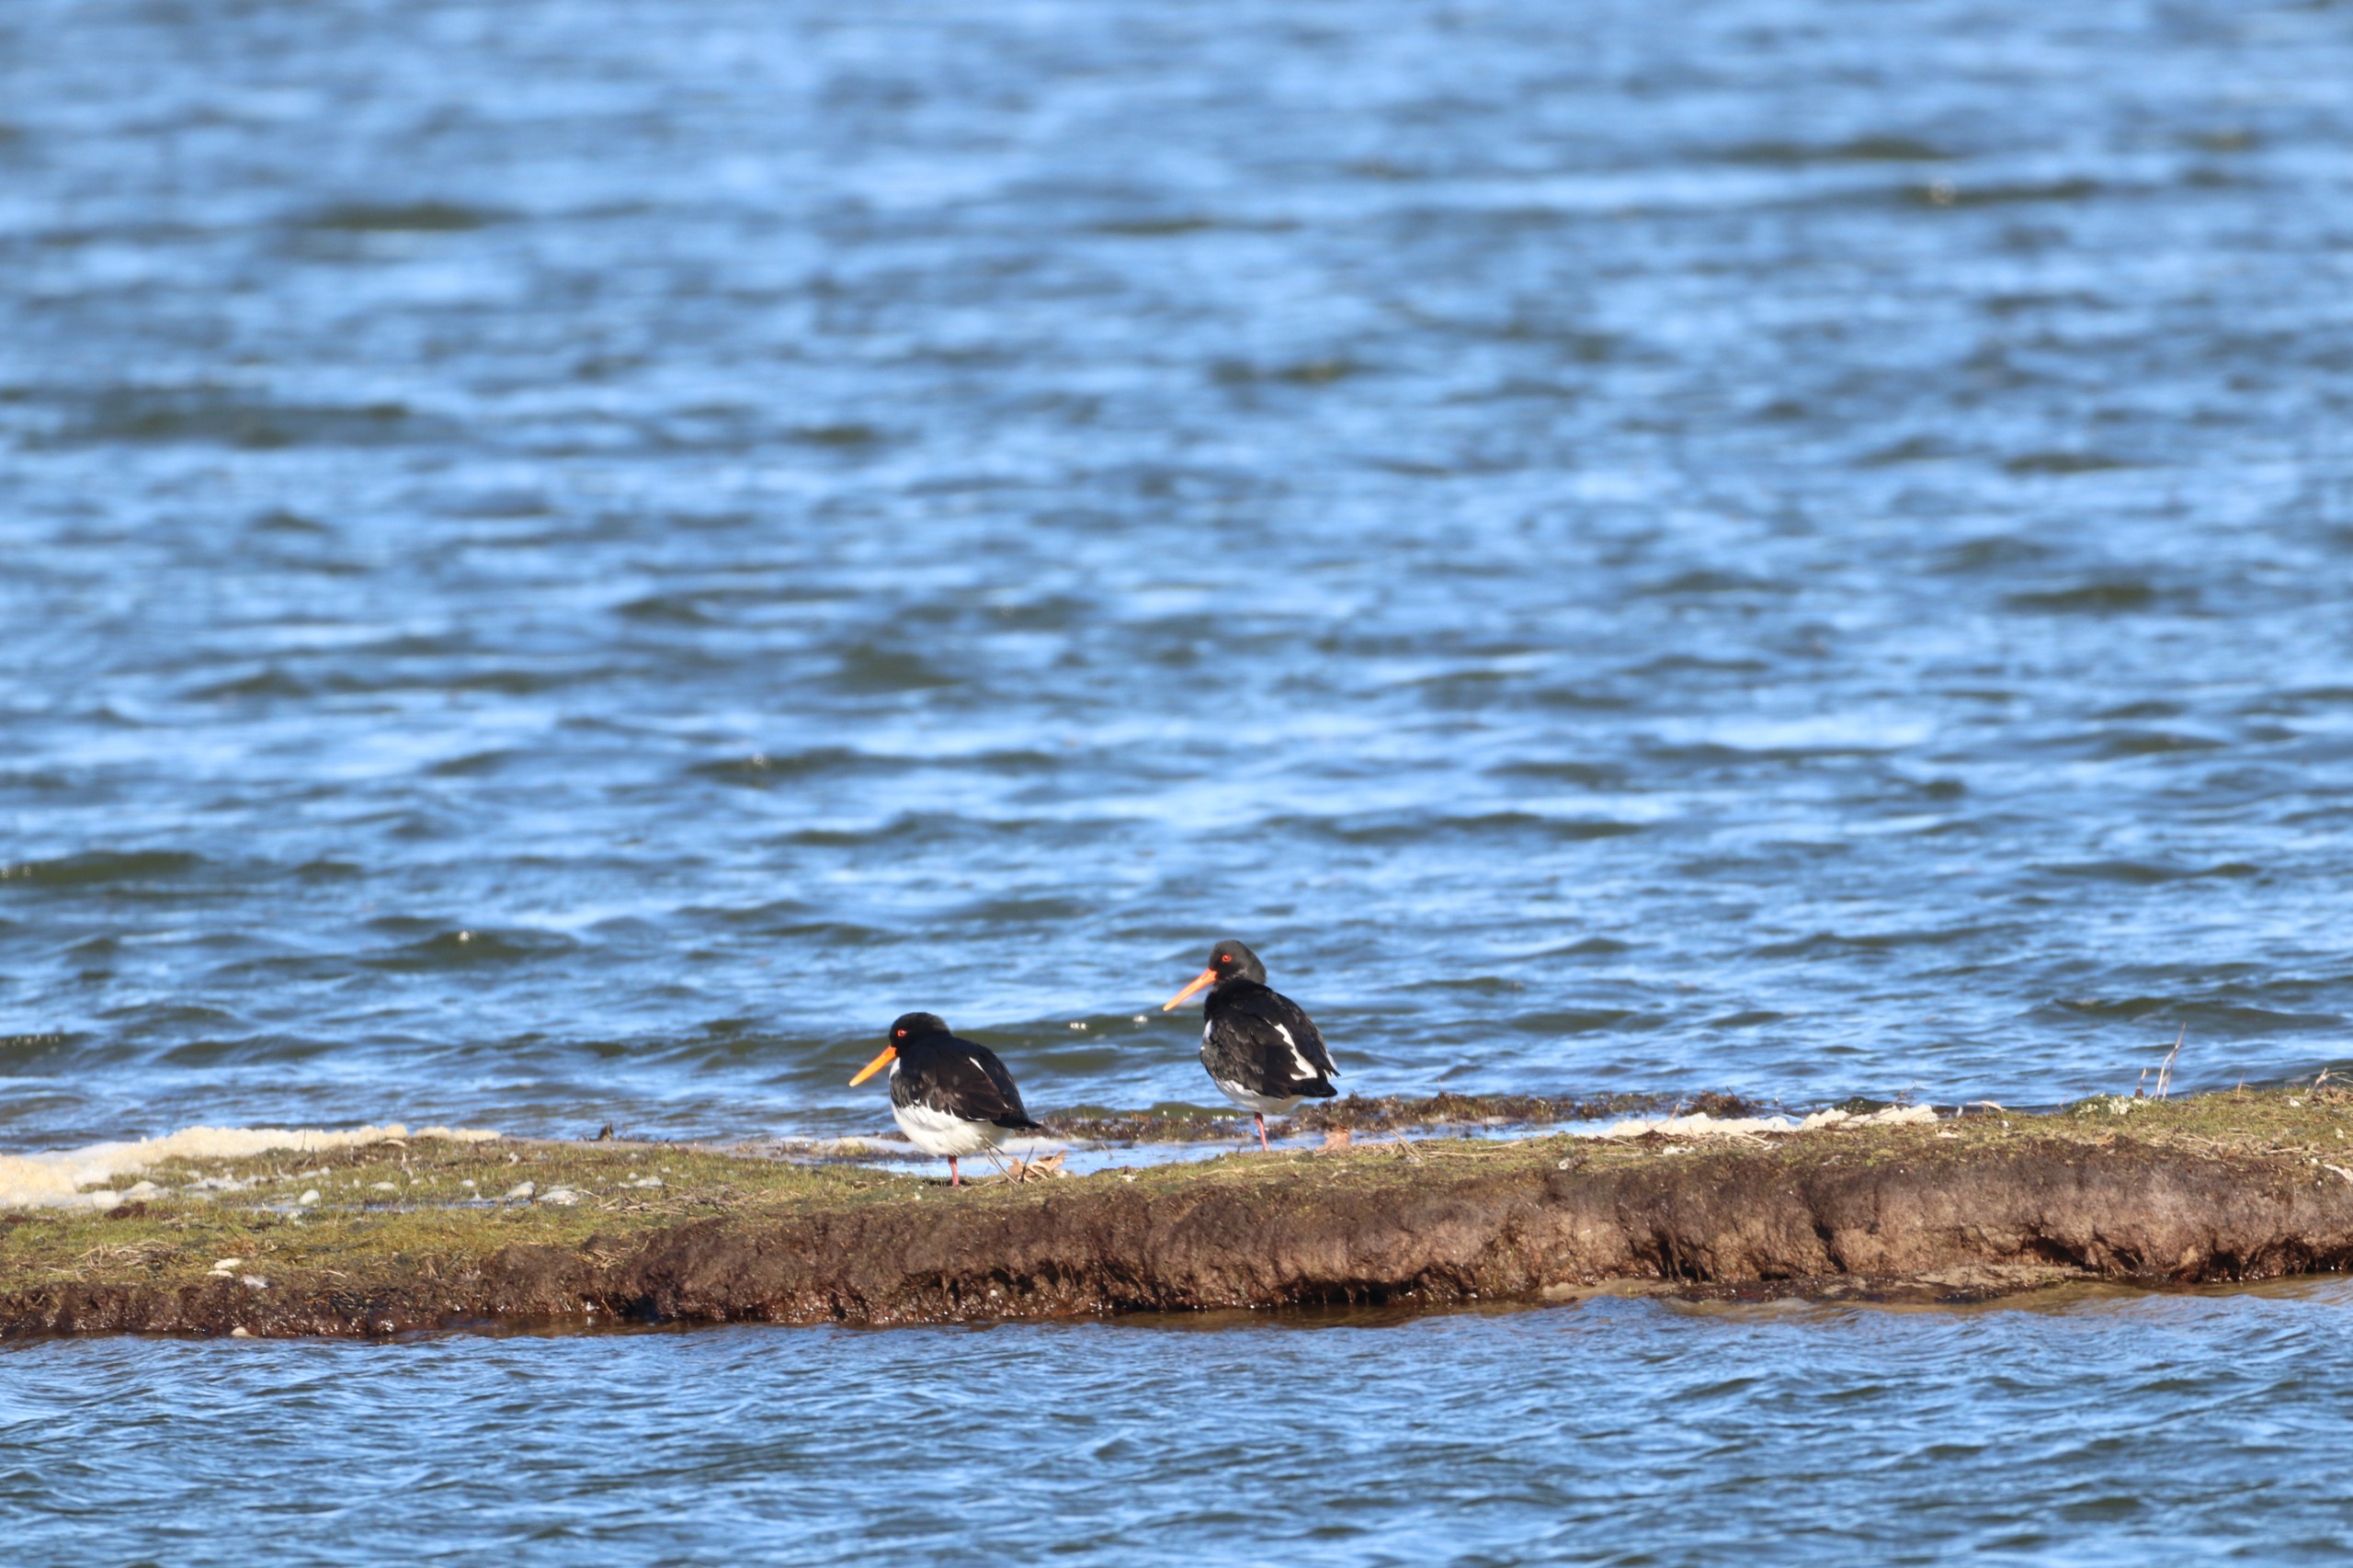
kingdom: Animalia
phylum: Chordata
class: Aves
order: Charadriiformes
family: Haematopodidae
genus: Haematopus
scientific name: Haematopus ostralegus
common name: Strandskade
